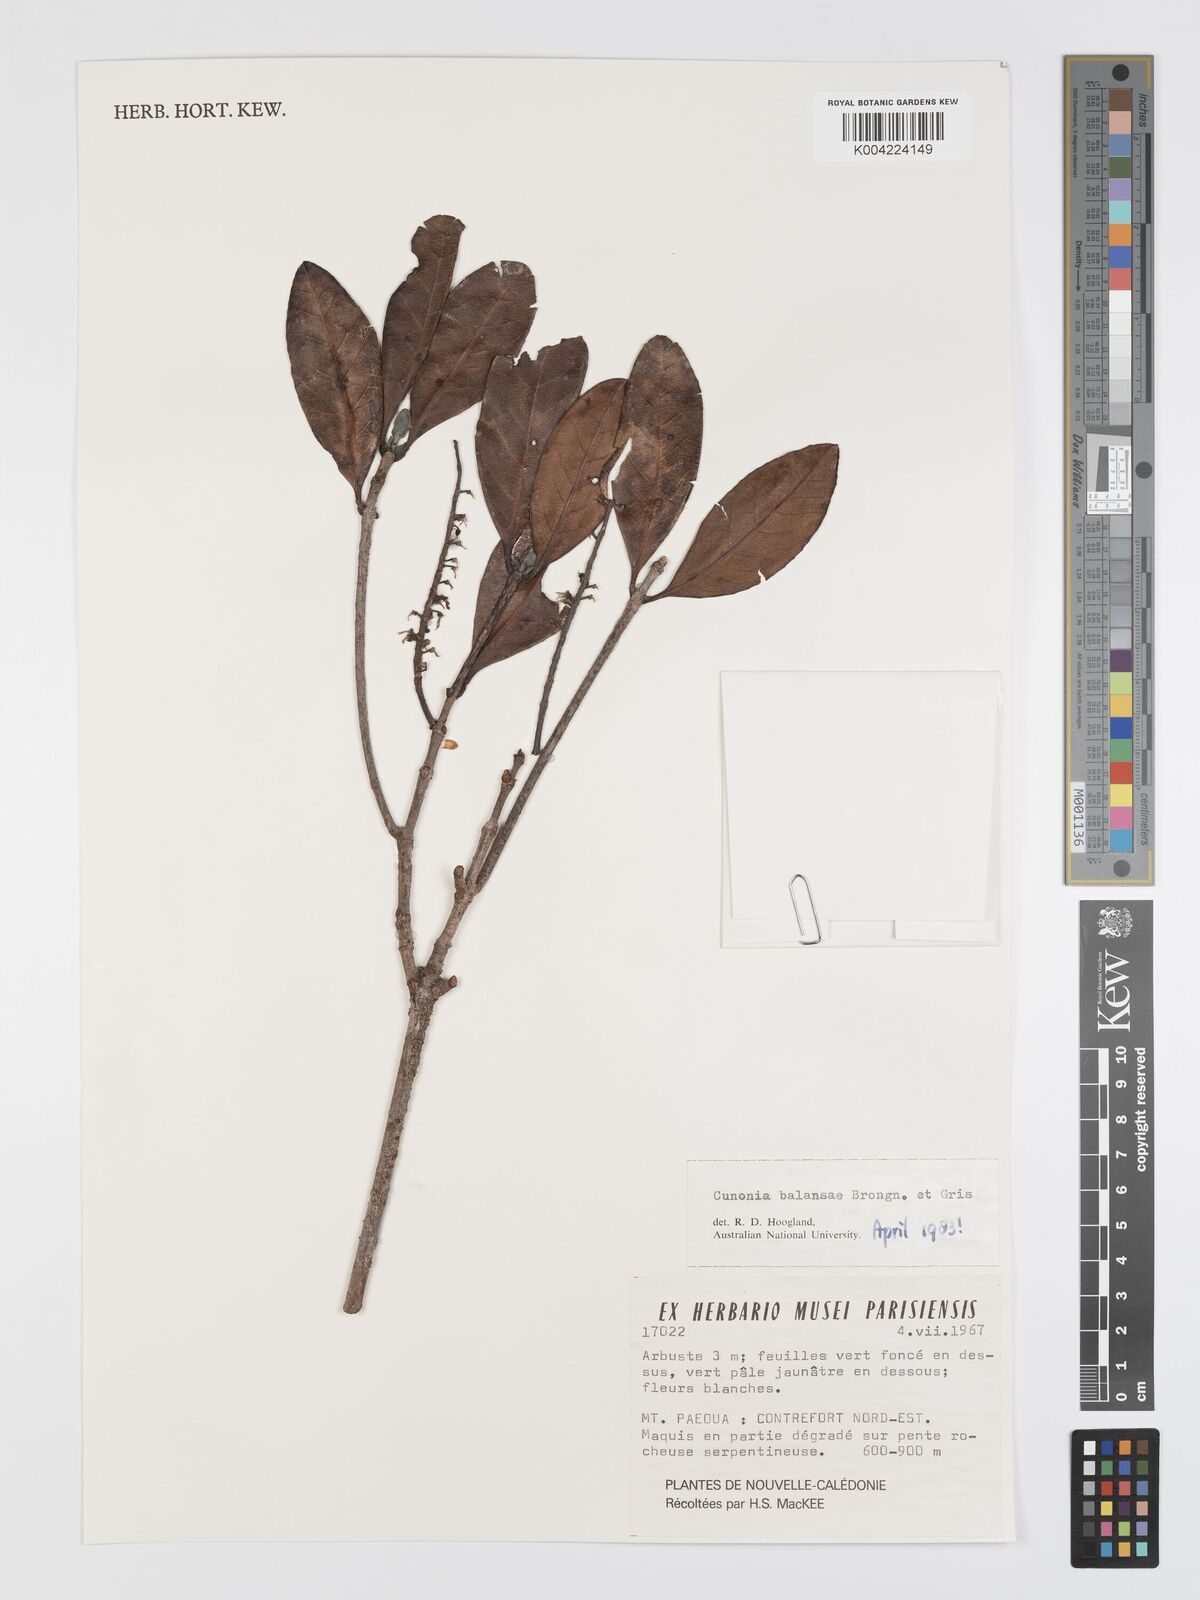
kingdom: Plantae
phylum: Tracheophyta
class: Magnoliopsida
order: Oxalidales
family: Cunoniaceae
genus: Cunonia
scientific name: Cunonia balansae
